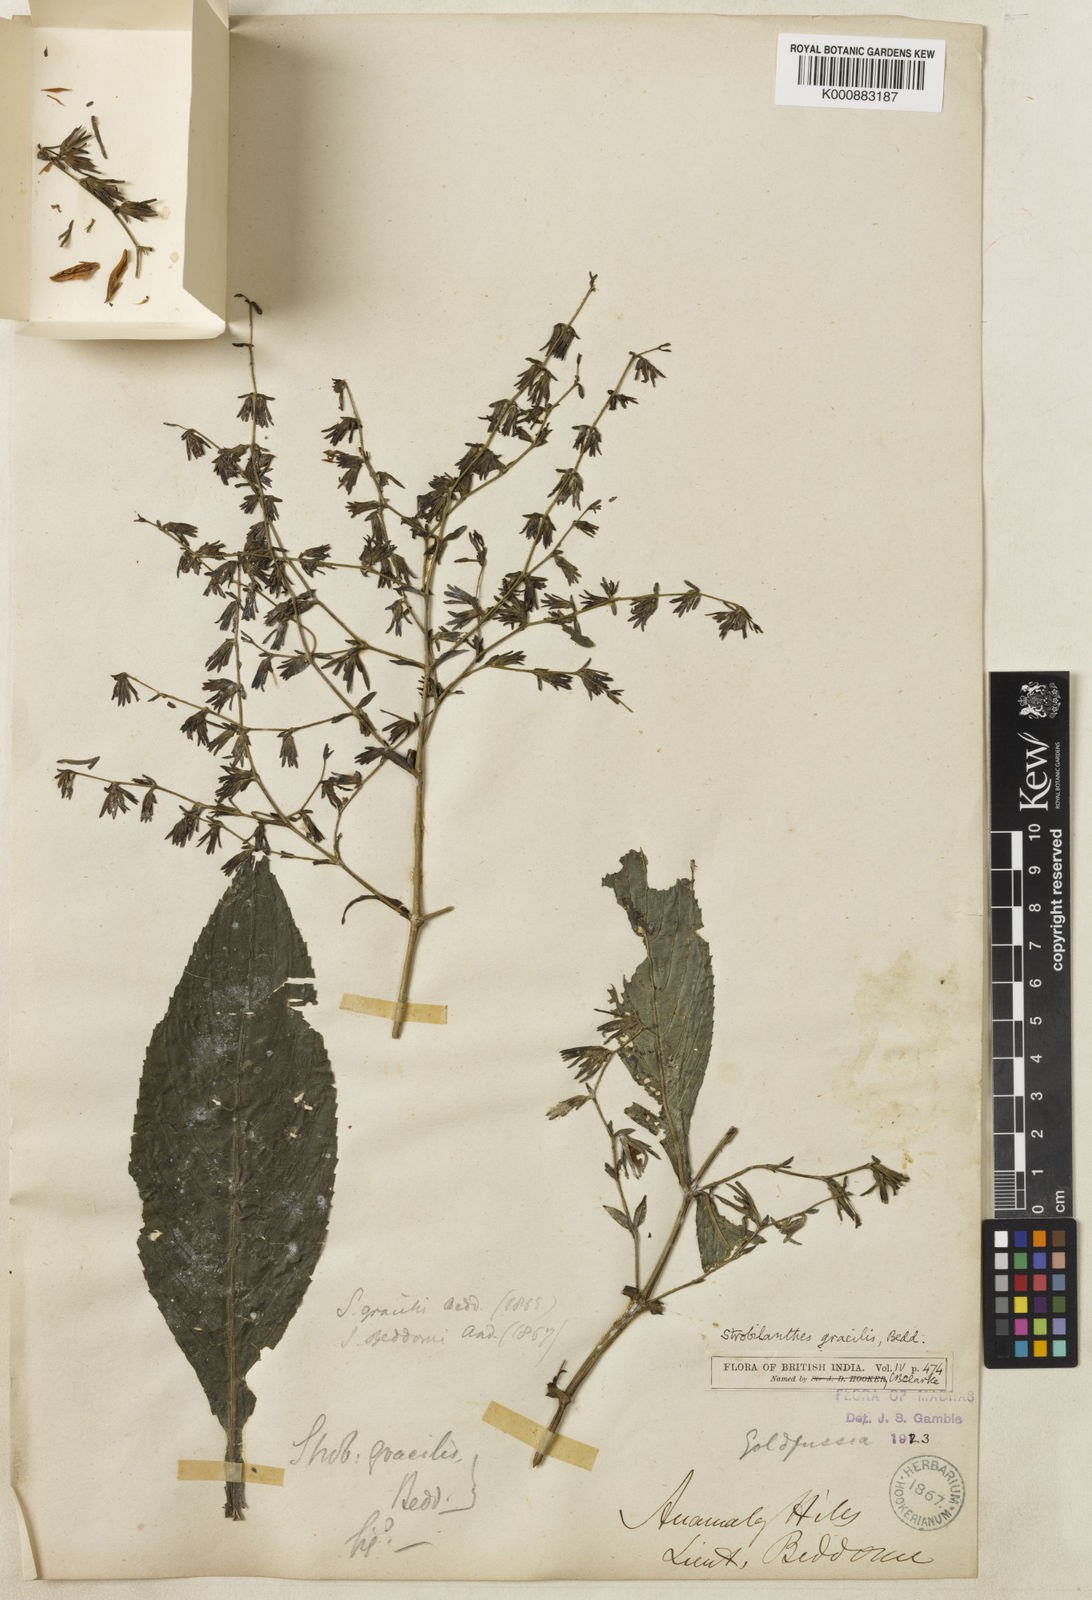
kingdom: Plantae
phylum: Tracheophyta
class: Magnoliopsida
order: Lamiales
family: Acanthaceae
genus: Strobilanthes
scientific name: Strobilanthes gracilis
